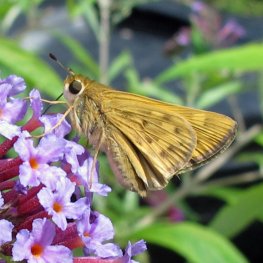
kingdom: Animalia
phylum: Arthropoda
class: Insecta
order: Lepidoptera
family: Hesperiidae
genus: Hylephila
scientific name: Hylephila phyleus
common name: Fiery Skipper
